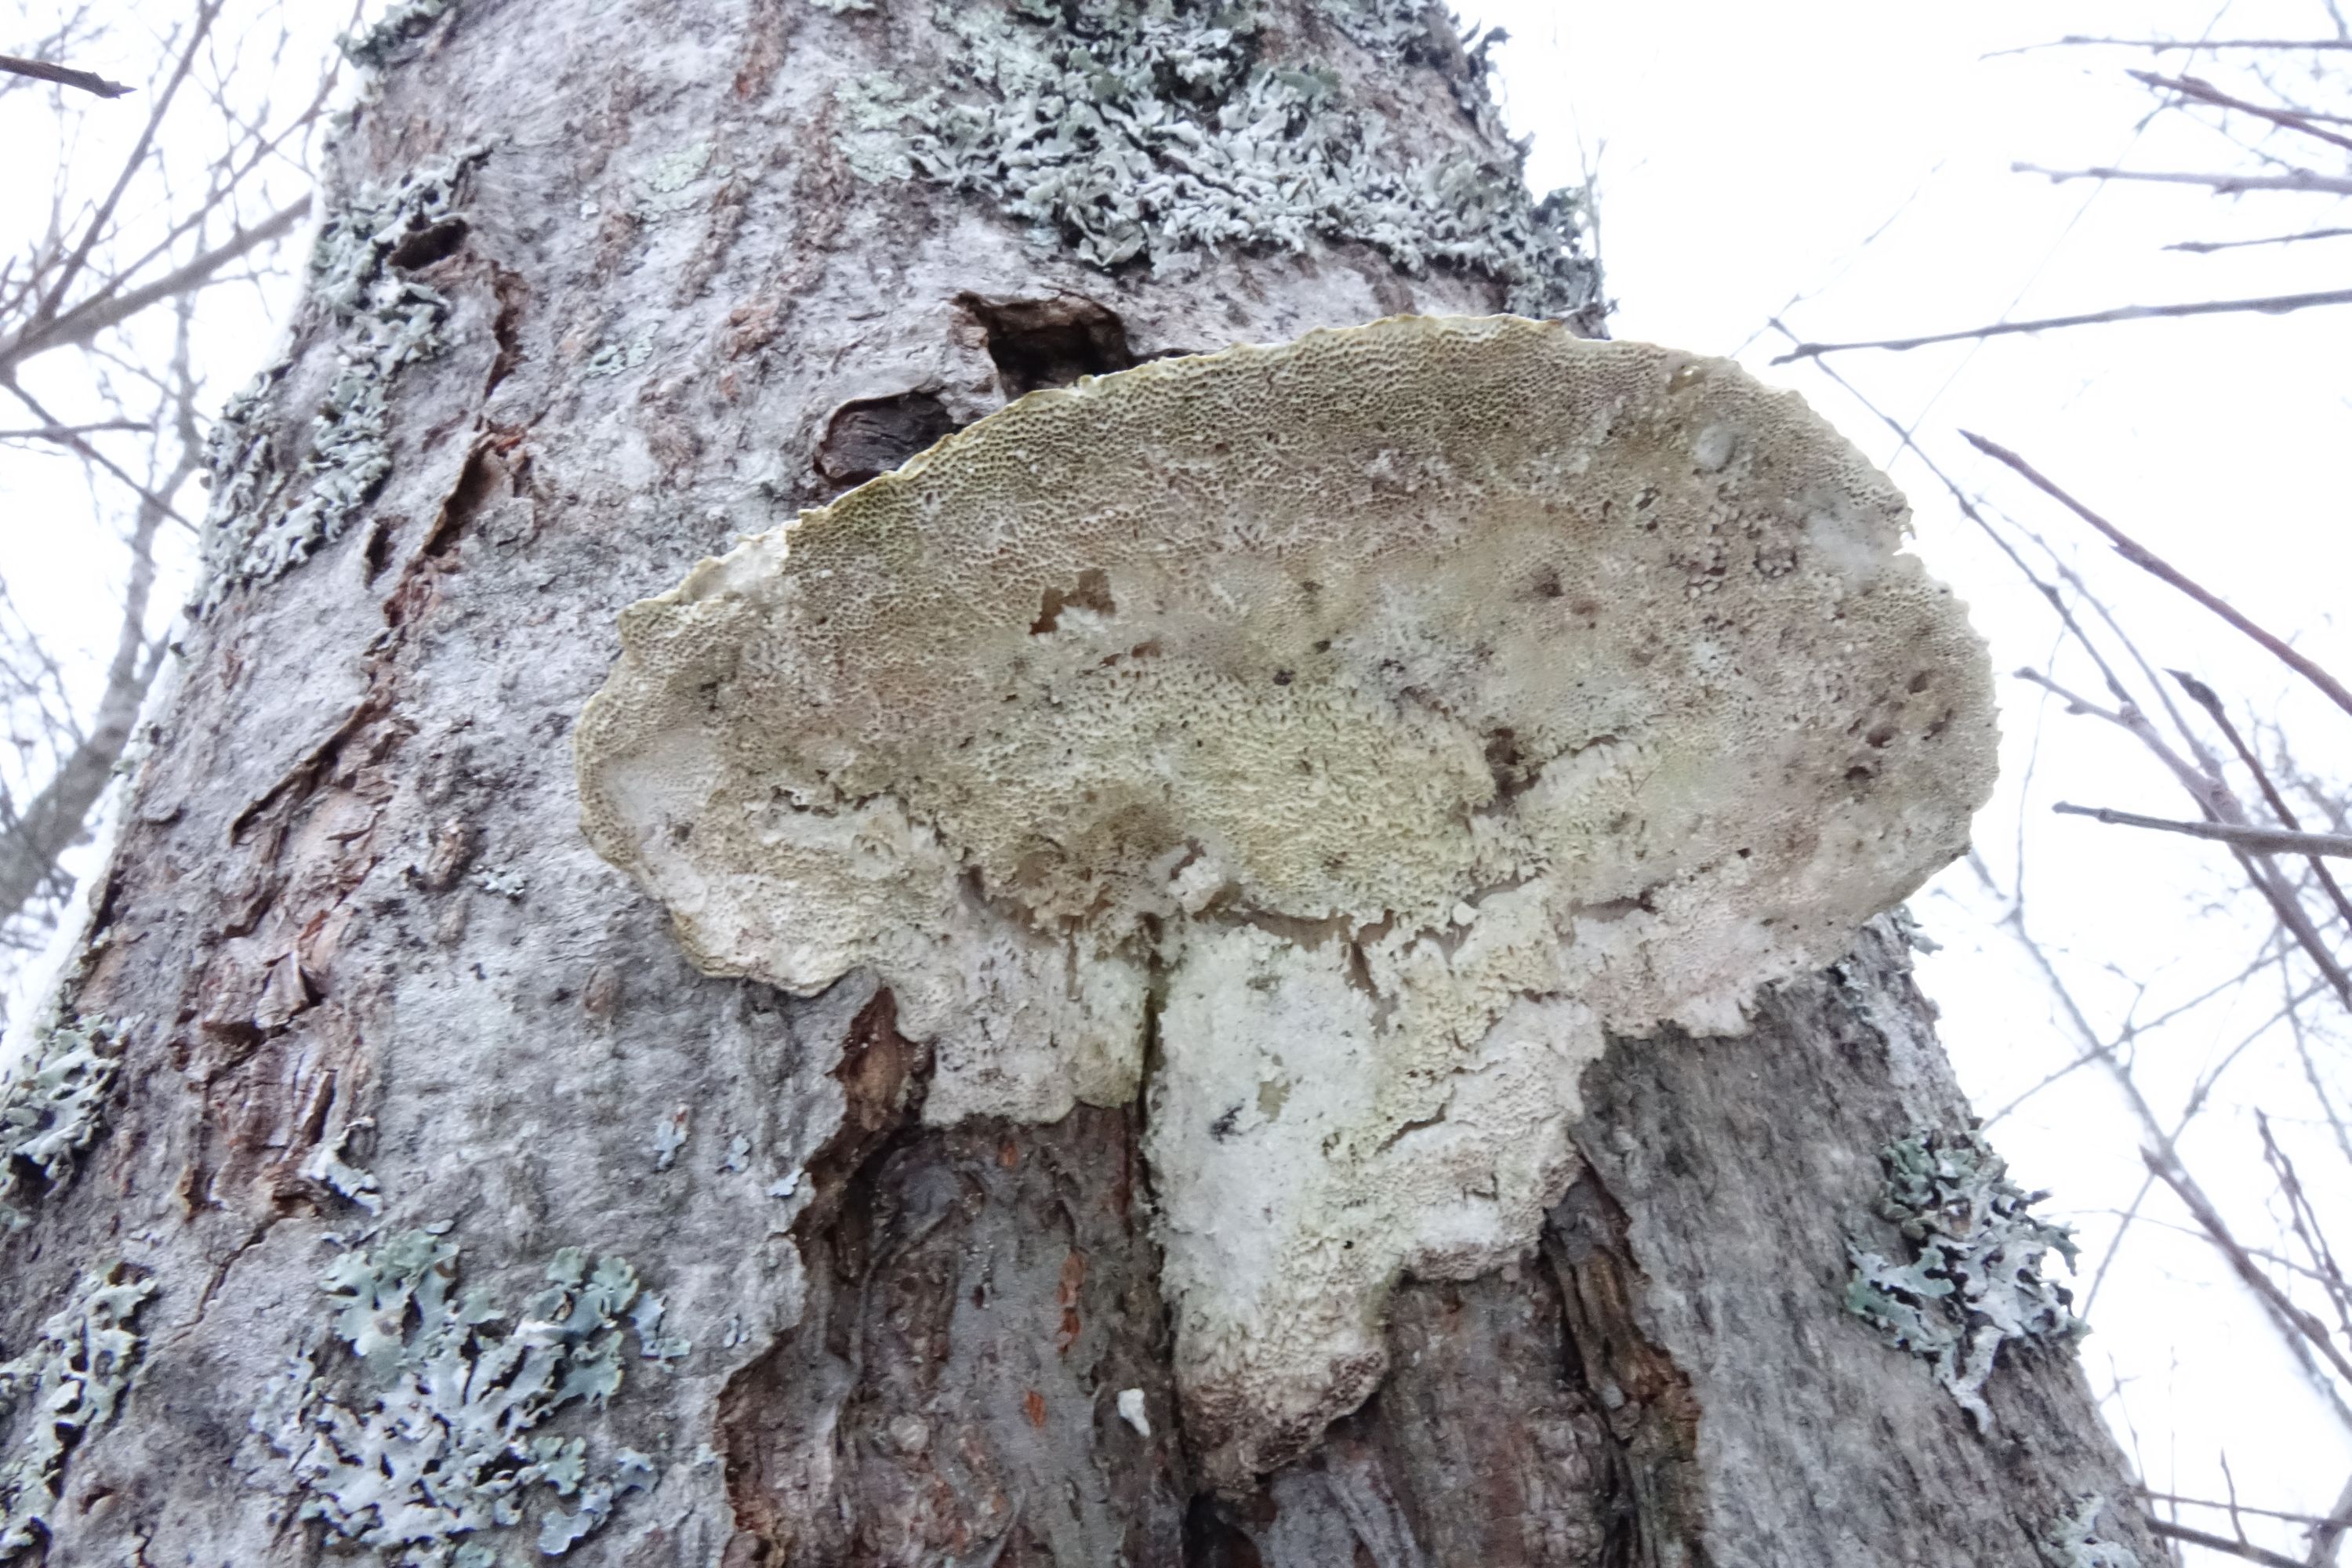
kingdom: Fungi
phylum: Basidiomycota
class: Agaricomycetes
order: Polyporales
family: Polyporaceae
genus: Trametes
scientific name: Trametes hirsuta
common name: Hairy bracket
